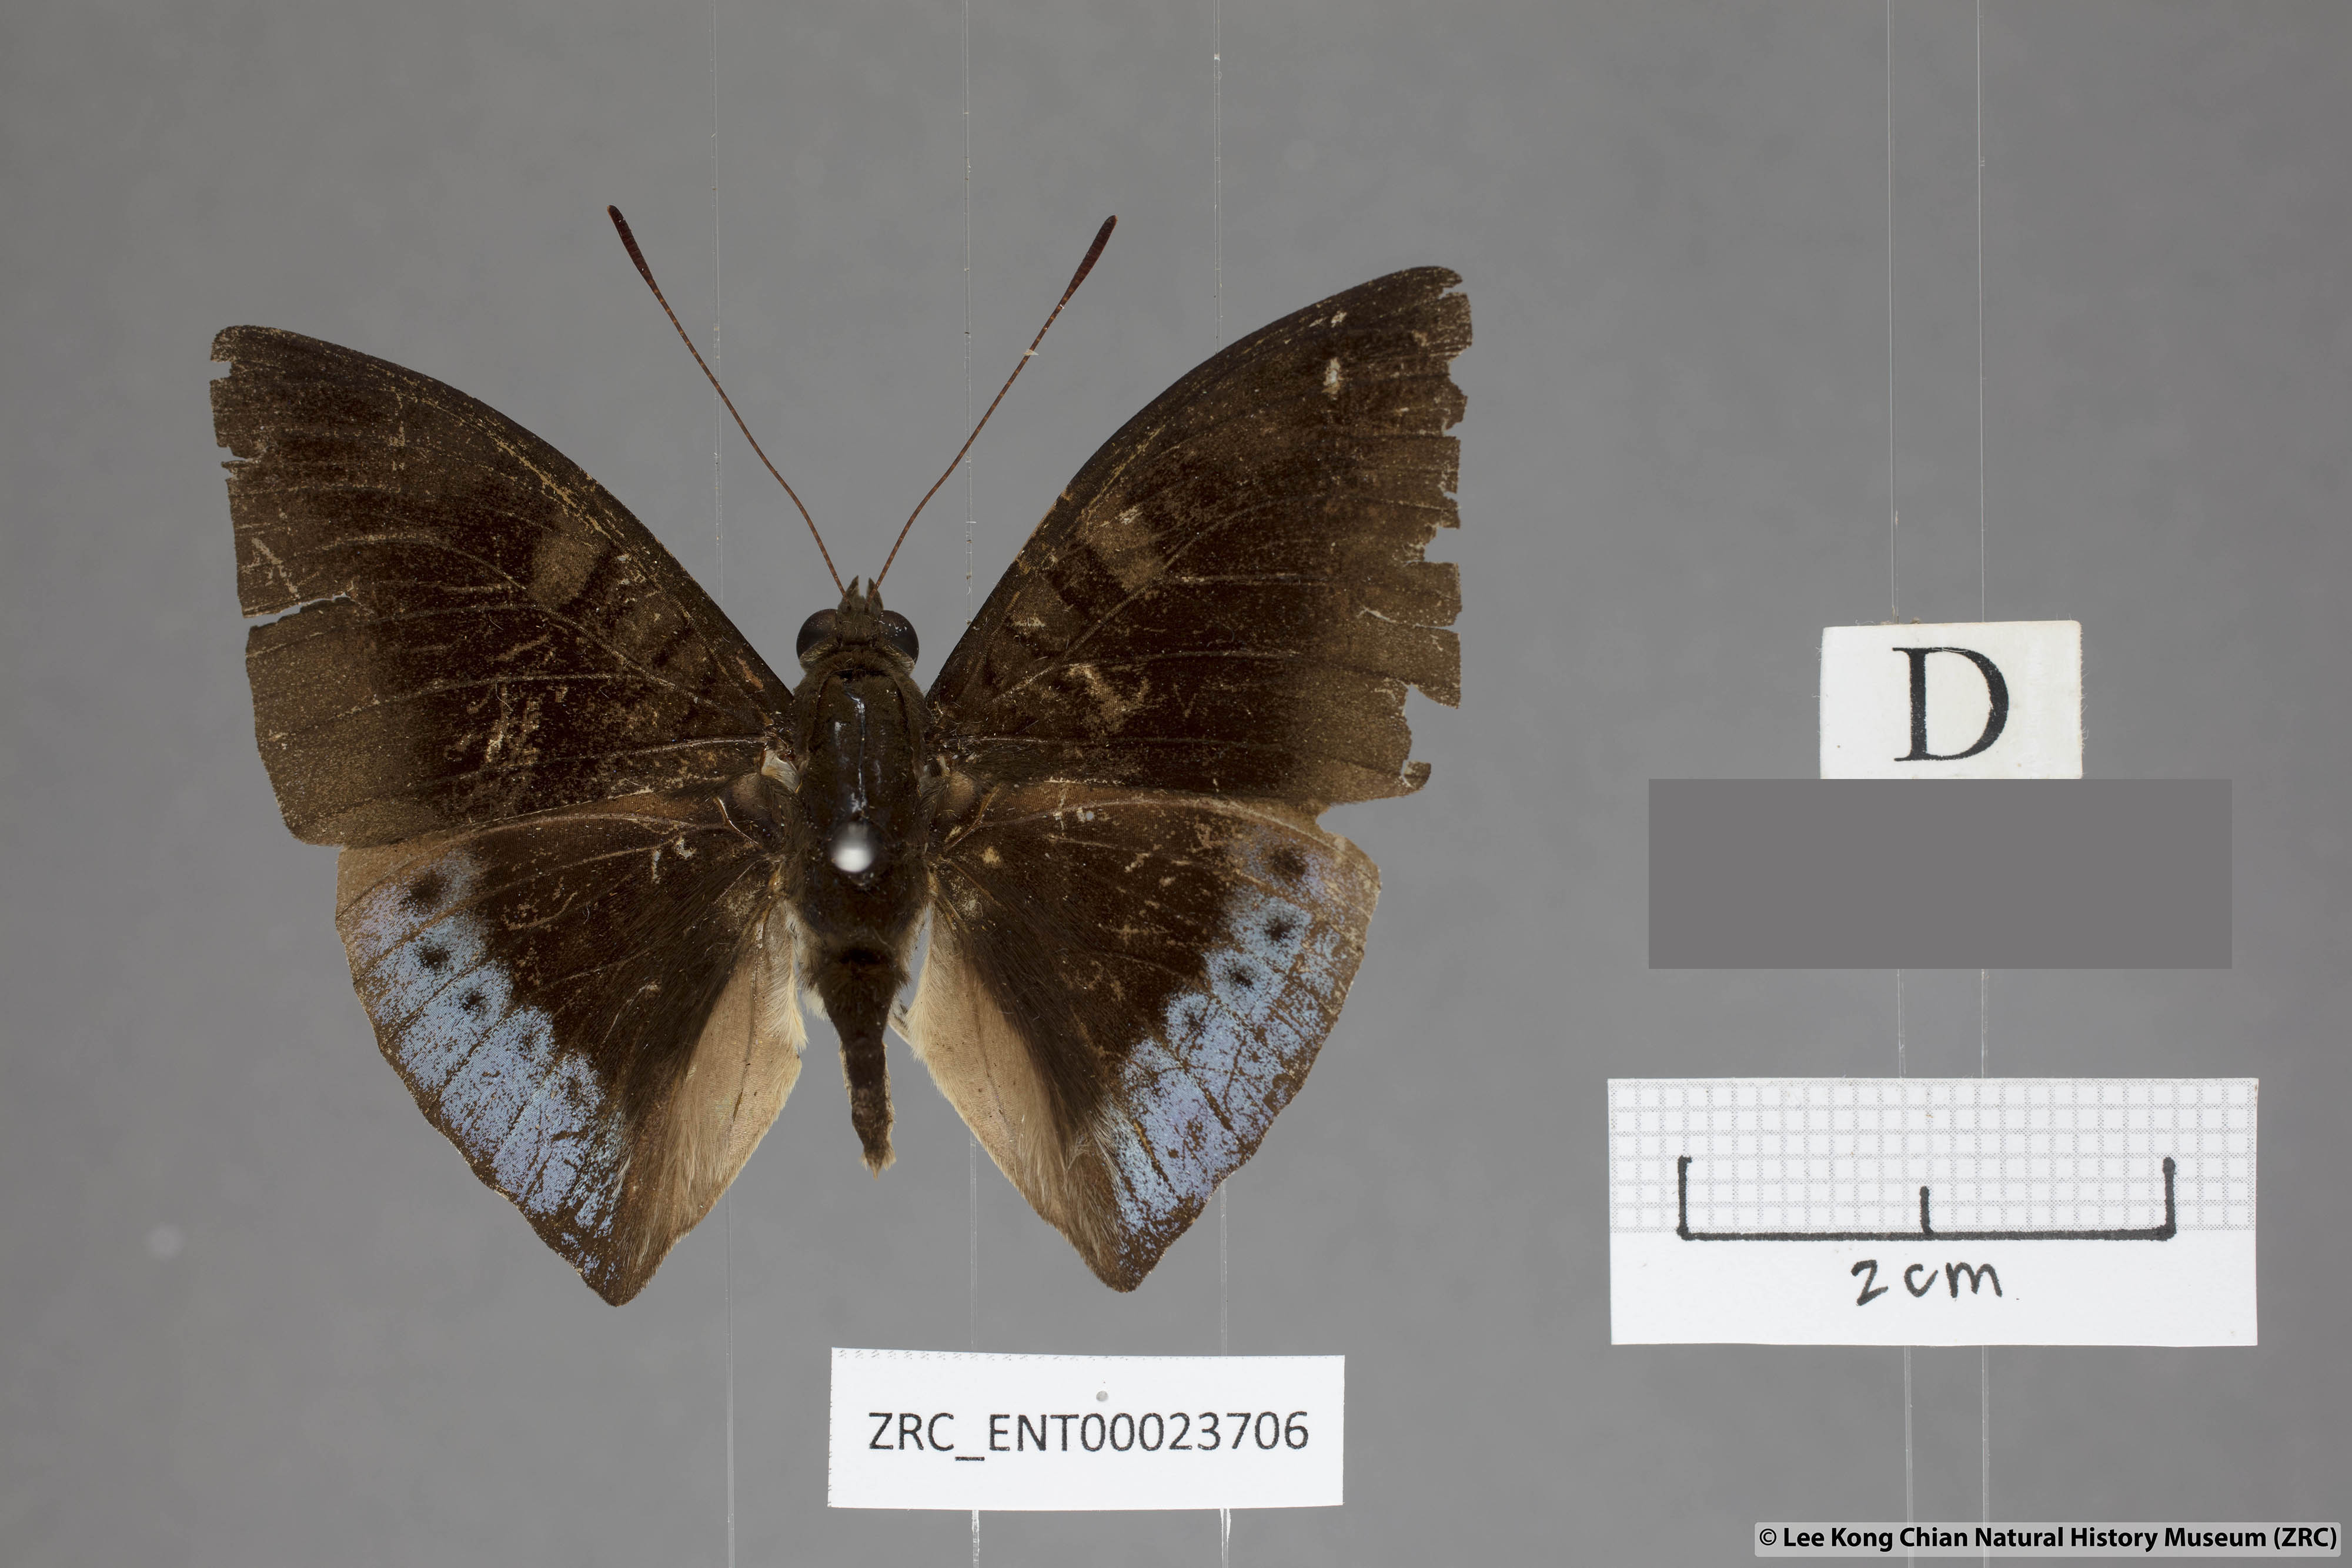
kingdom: Animalia
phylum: Arthropoda
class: Insecta
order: Lepidoptera
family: Nymphalidae
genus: Euthalia
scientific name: Euthalia mahadeva
